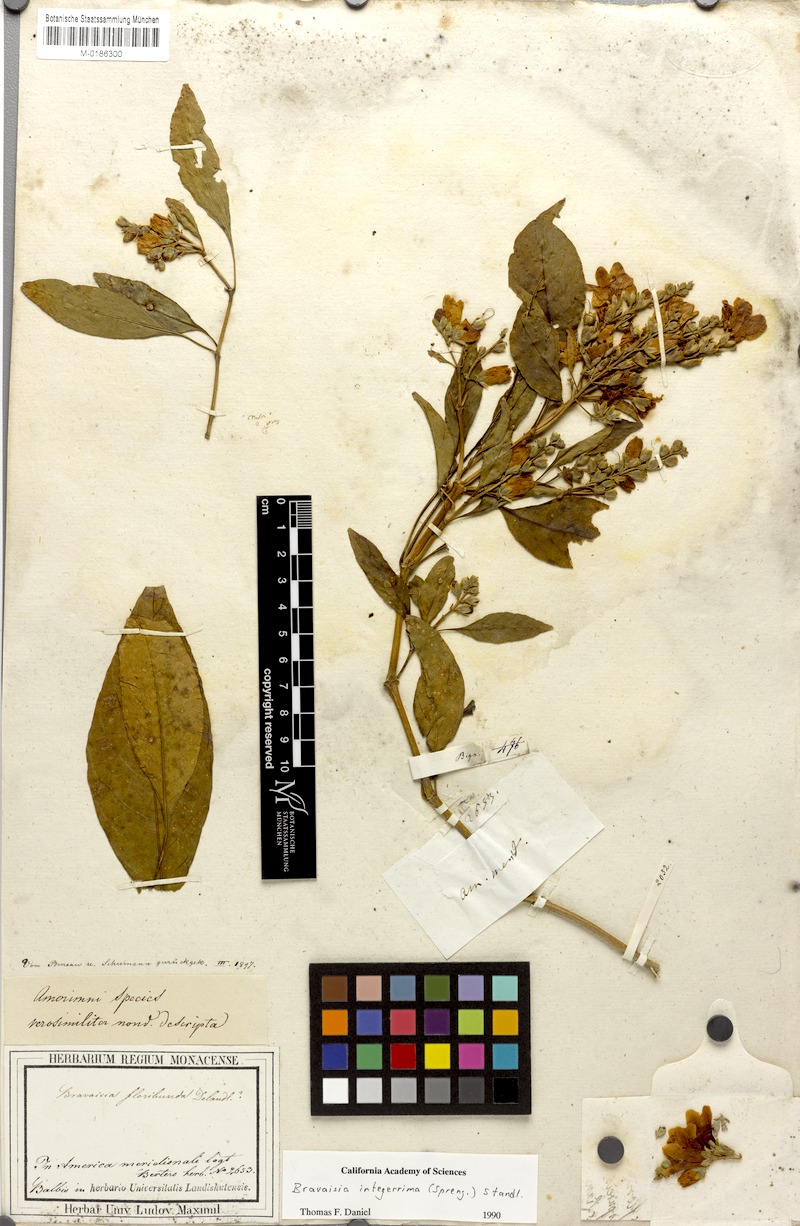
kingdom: Plantae
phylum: Tracheophyta
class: Magnoliopsida
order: Lamiales
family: Acanthaceae
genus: Bravaisia
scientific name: Bravaisia integerrima
